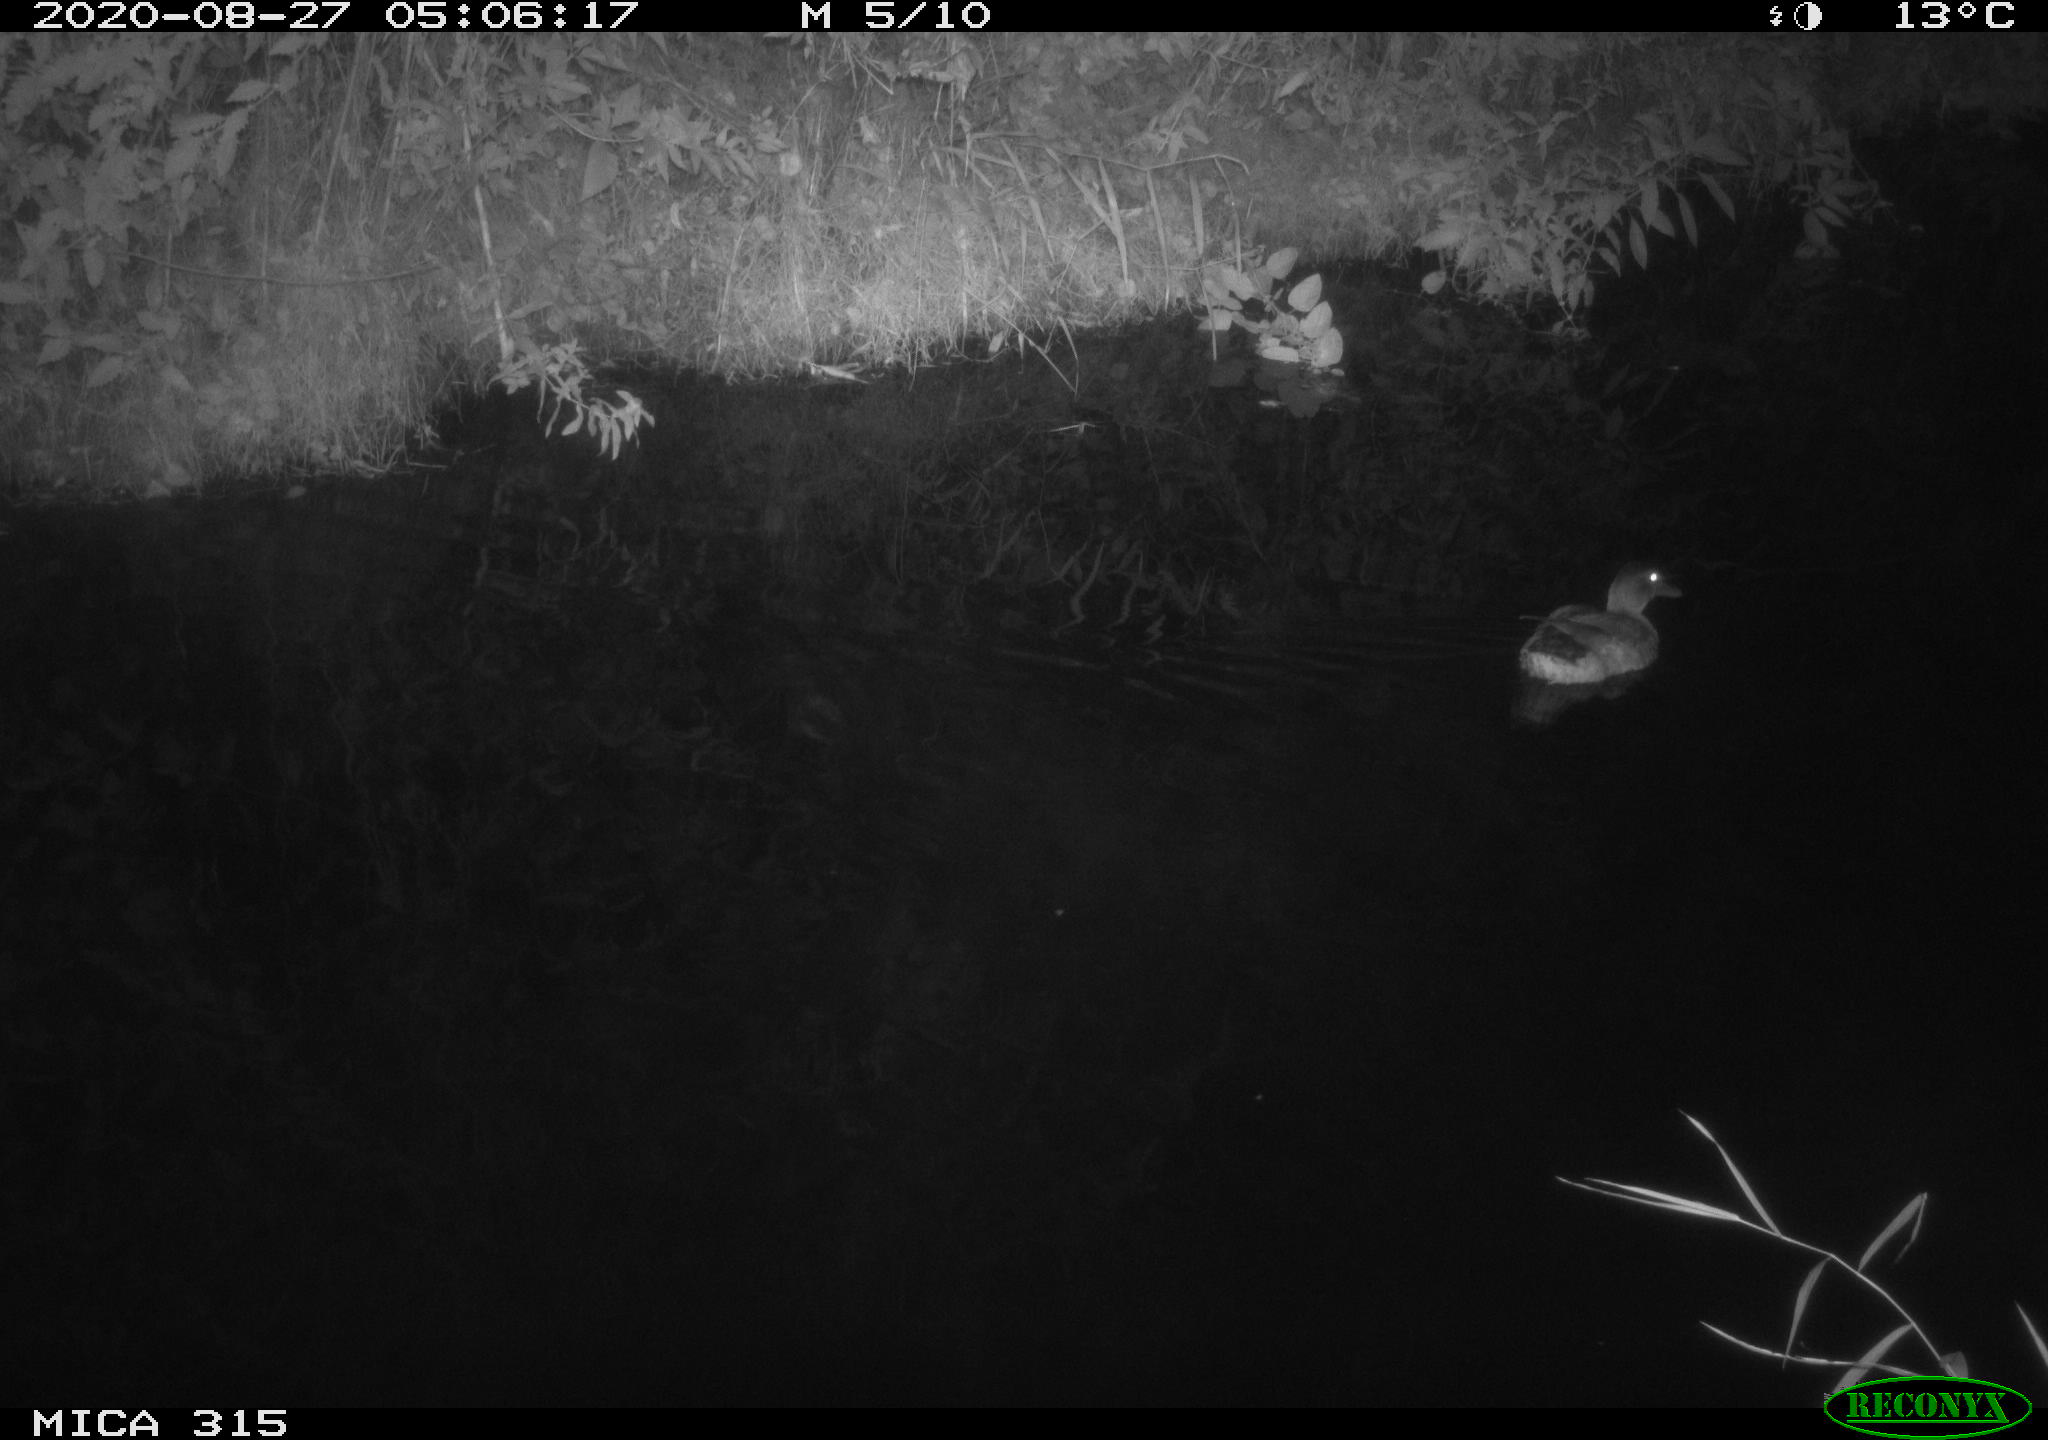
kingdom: Animalia
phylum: Chordata
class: Aves
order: Anseriformes
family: Anatidae
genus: Anas
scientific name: Anas platyrhynchos
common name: Mallard
